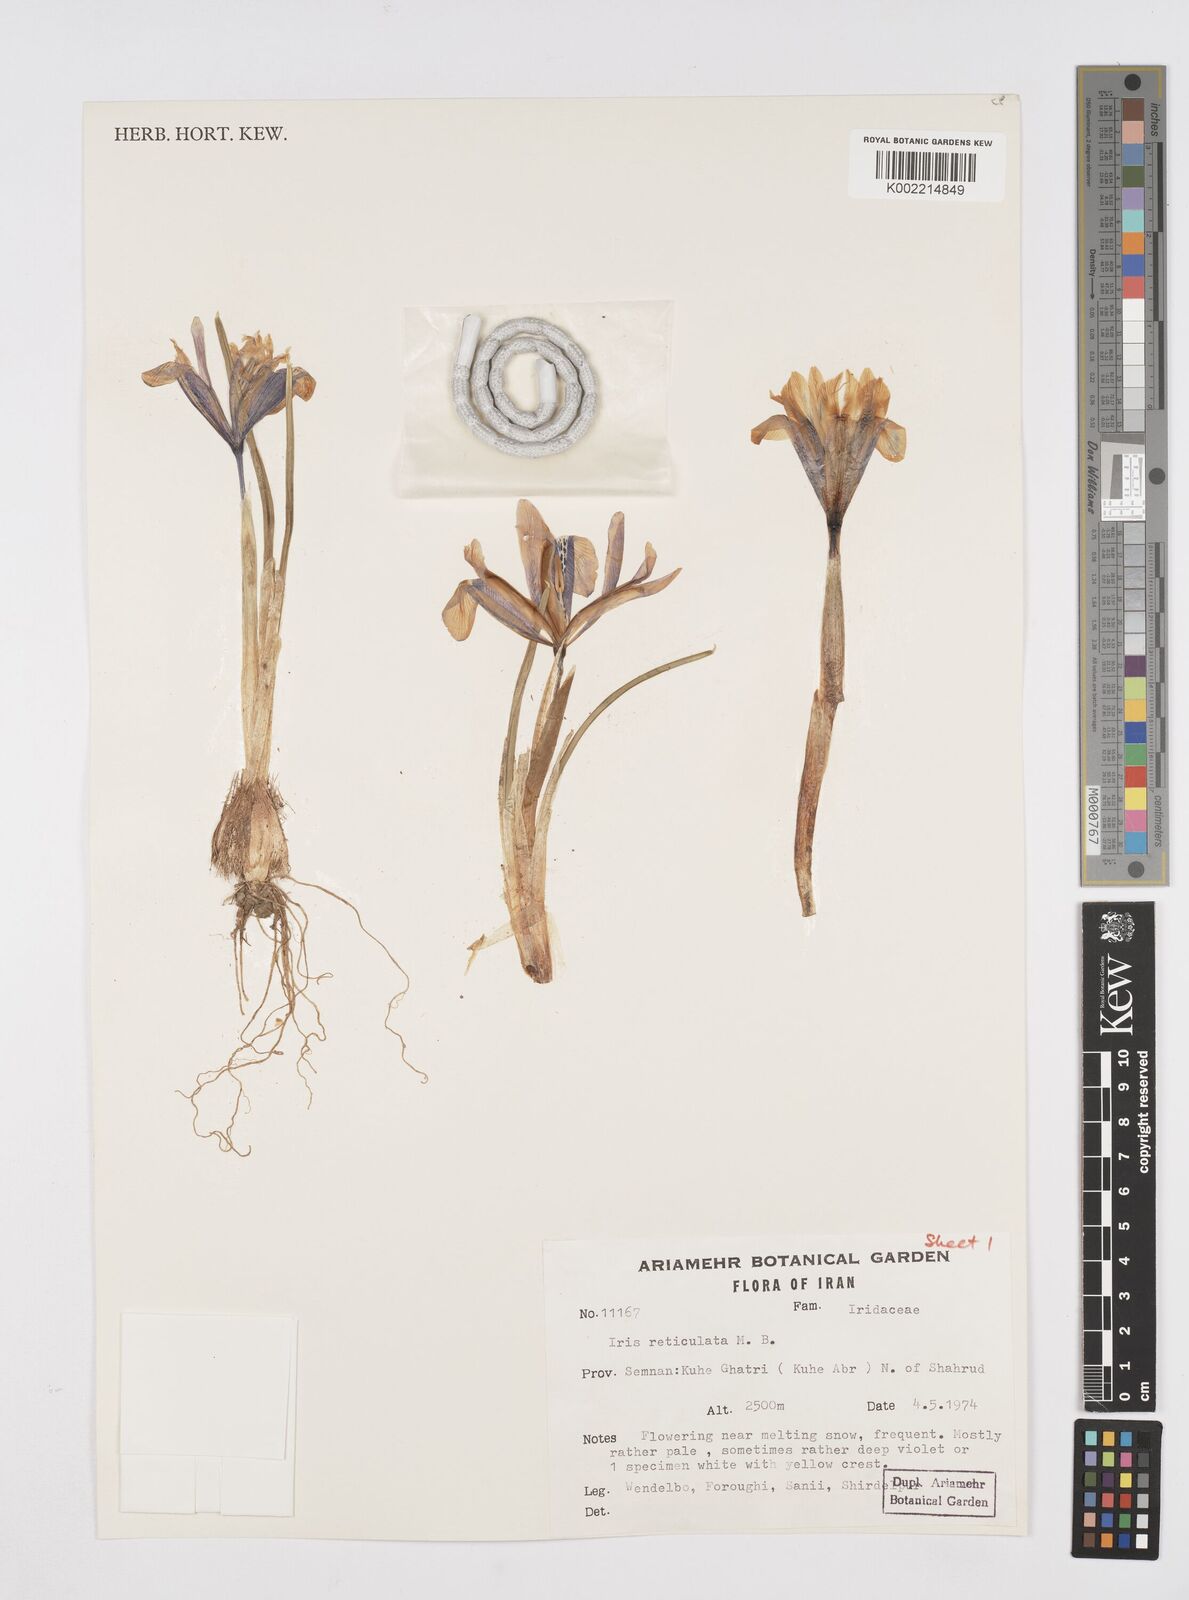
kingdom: Plantae
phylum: Tracheophyta
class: Liliopsida
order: Asparagales
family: Iridaceae
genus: Iris
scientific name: Iris reticulata
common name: Netted iris
